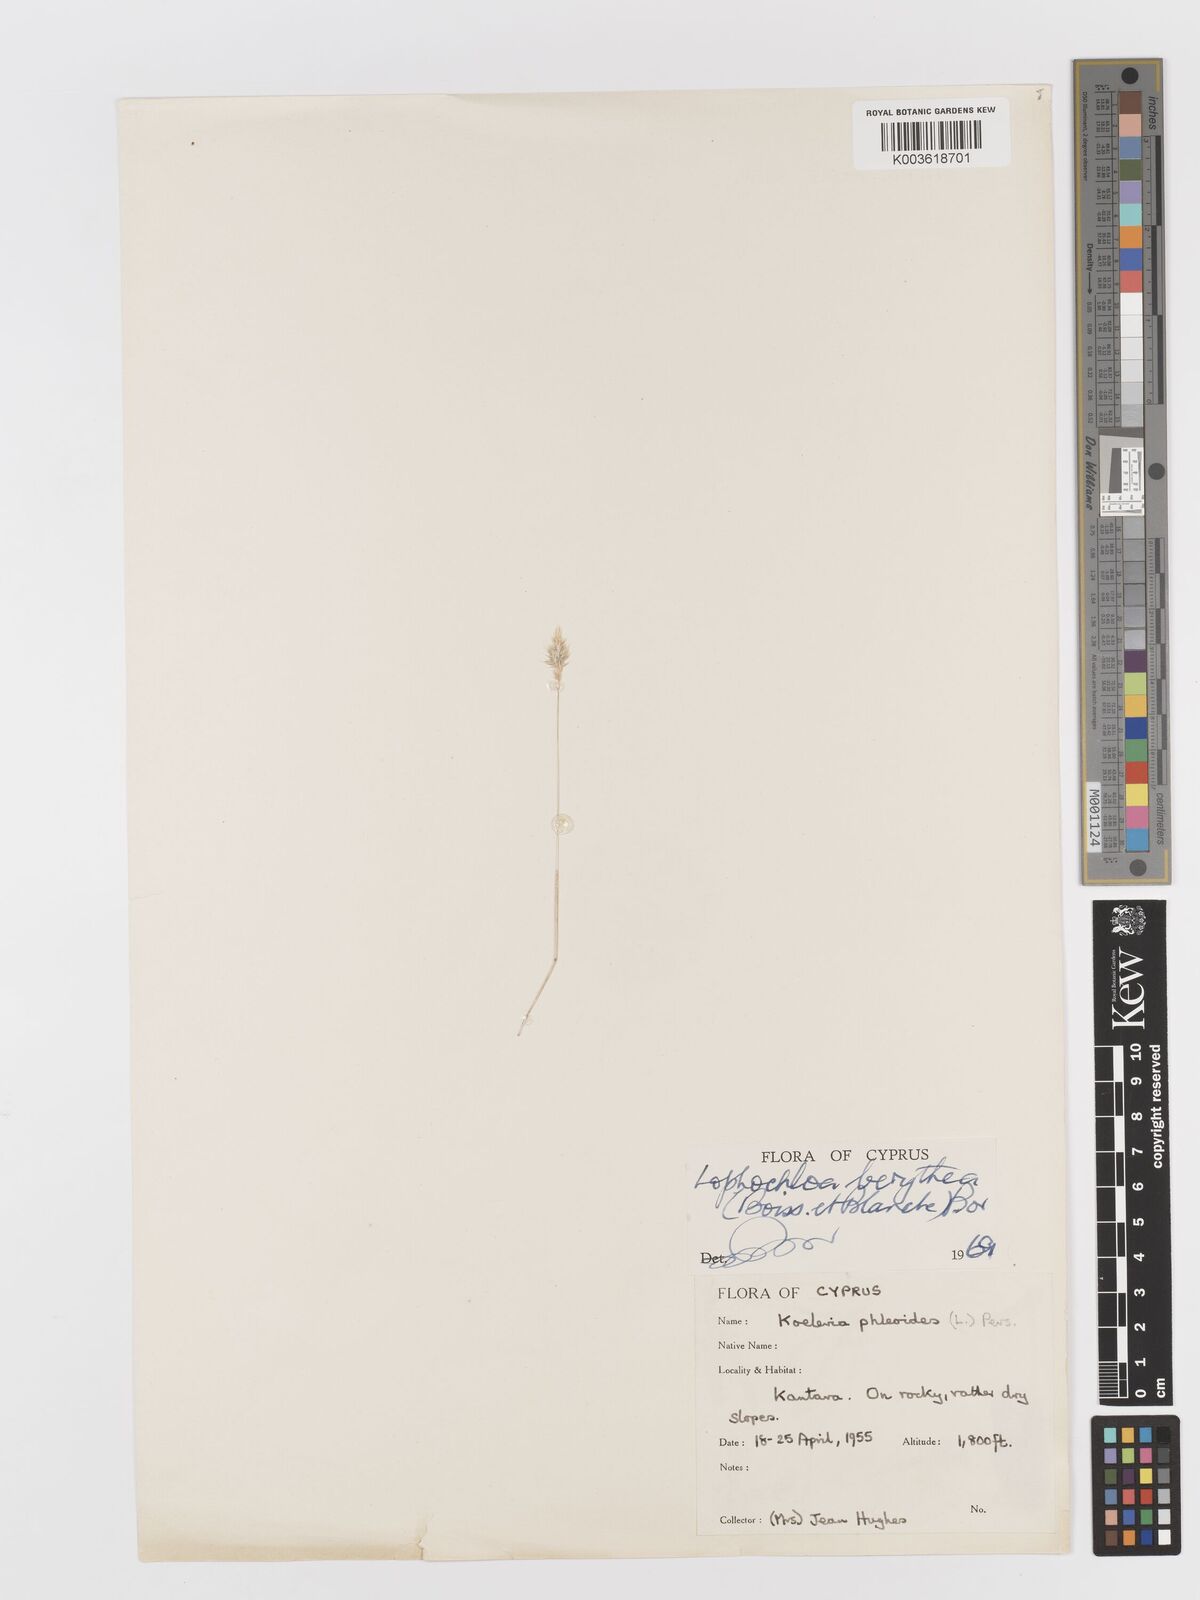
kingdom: Plantae
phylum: Tracheophyta
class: Liliopsida
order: Poales
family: Poaceae
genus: Rostraria
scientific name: Rostraria smyrnaea
